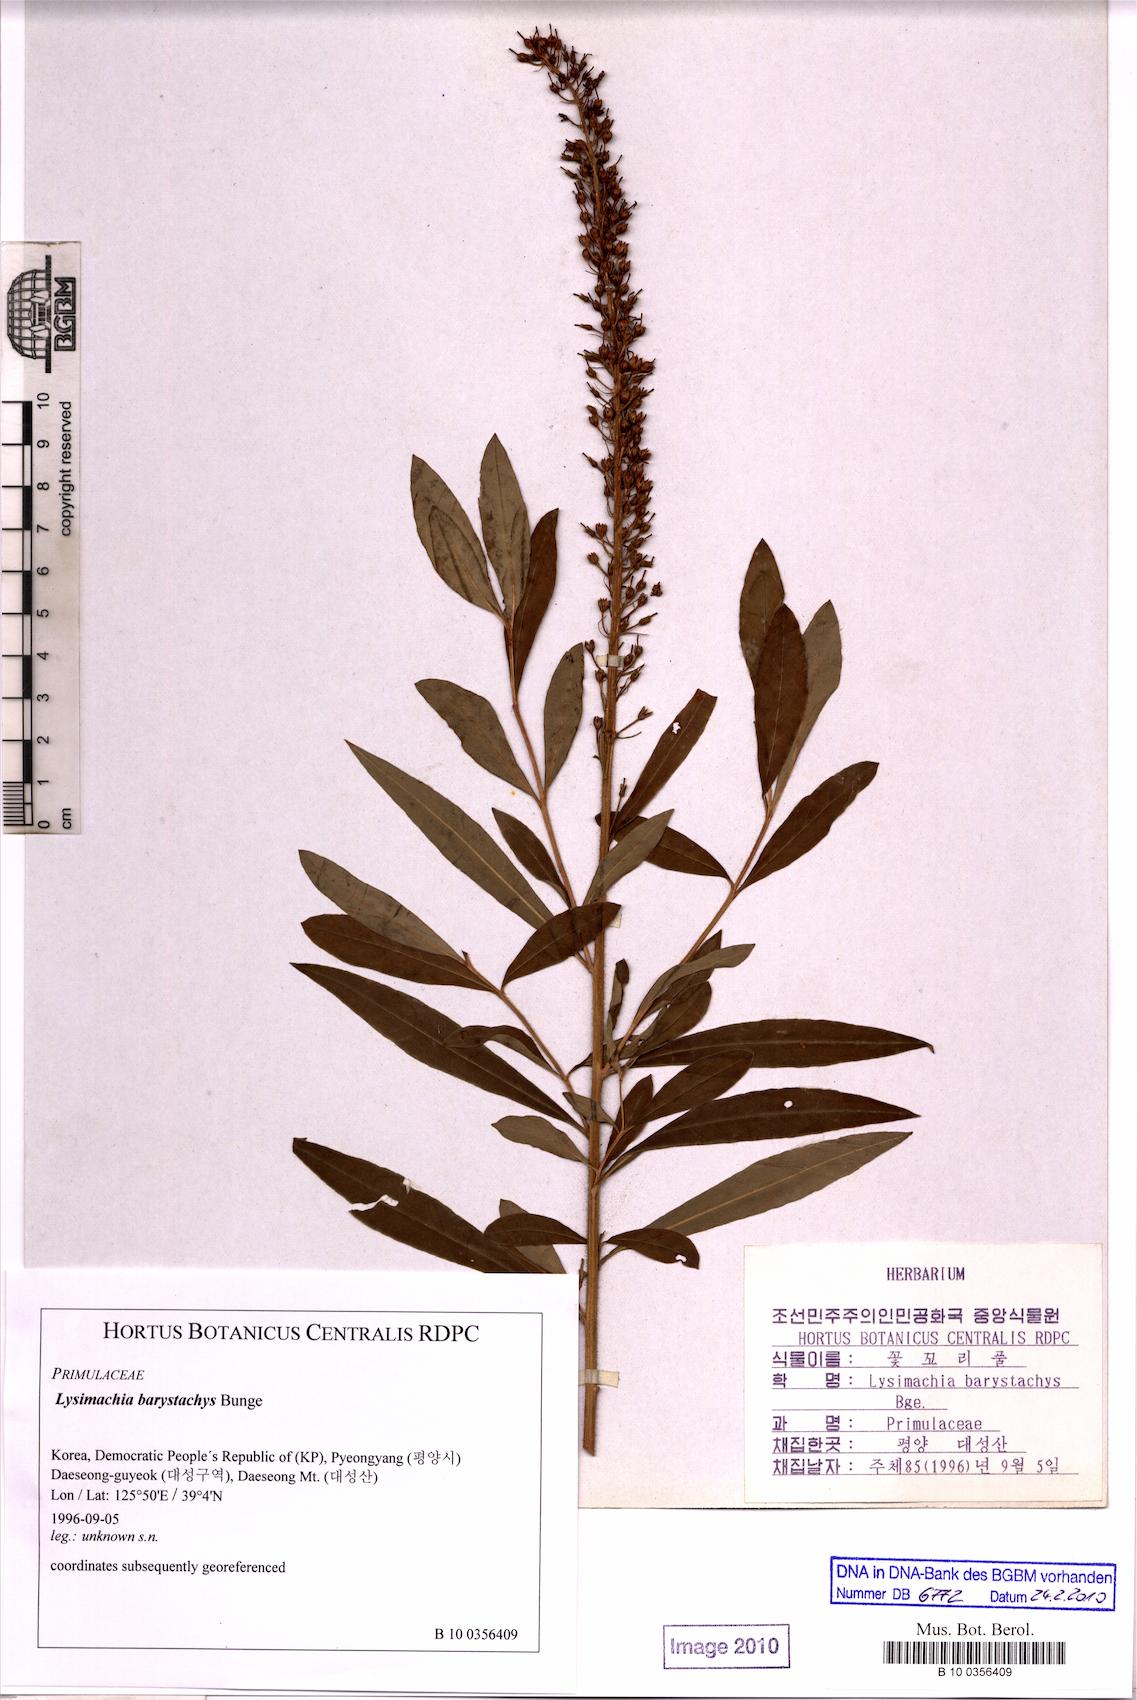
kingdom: Plantae
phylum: Tracheophyta
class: Magnoliopsida
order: Ericales
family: Primulaceae
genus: Lysimachia
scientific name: Lysimachia barystachys
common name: Manchurian yellow loosestrife
